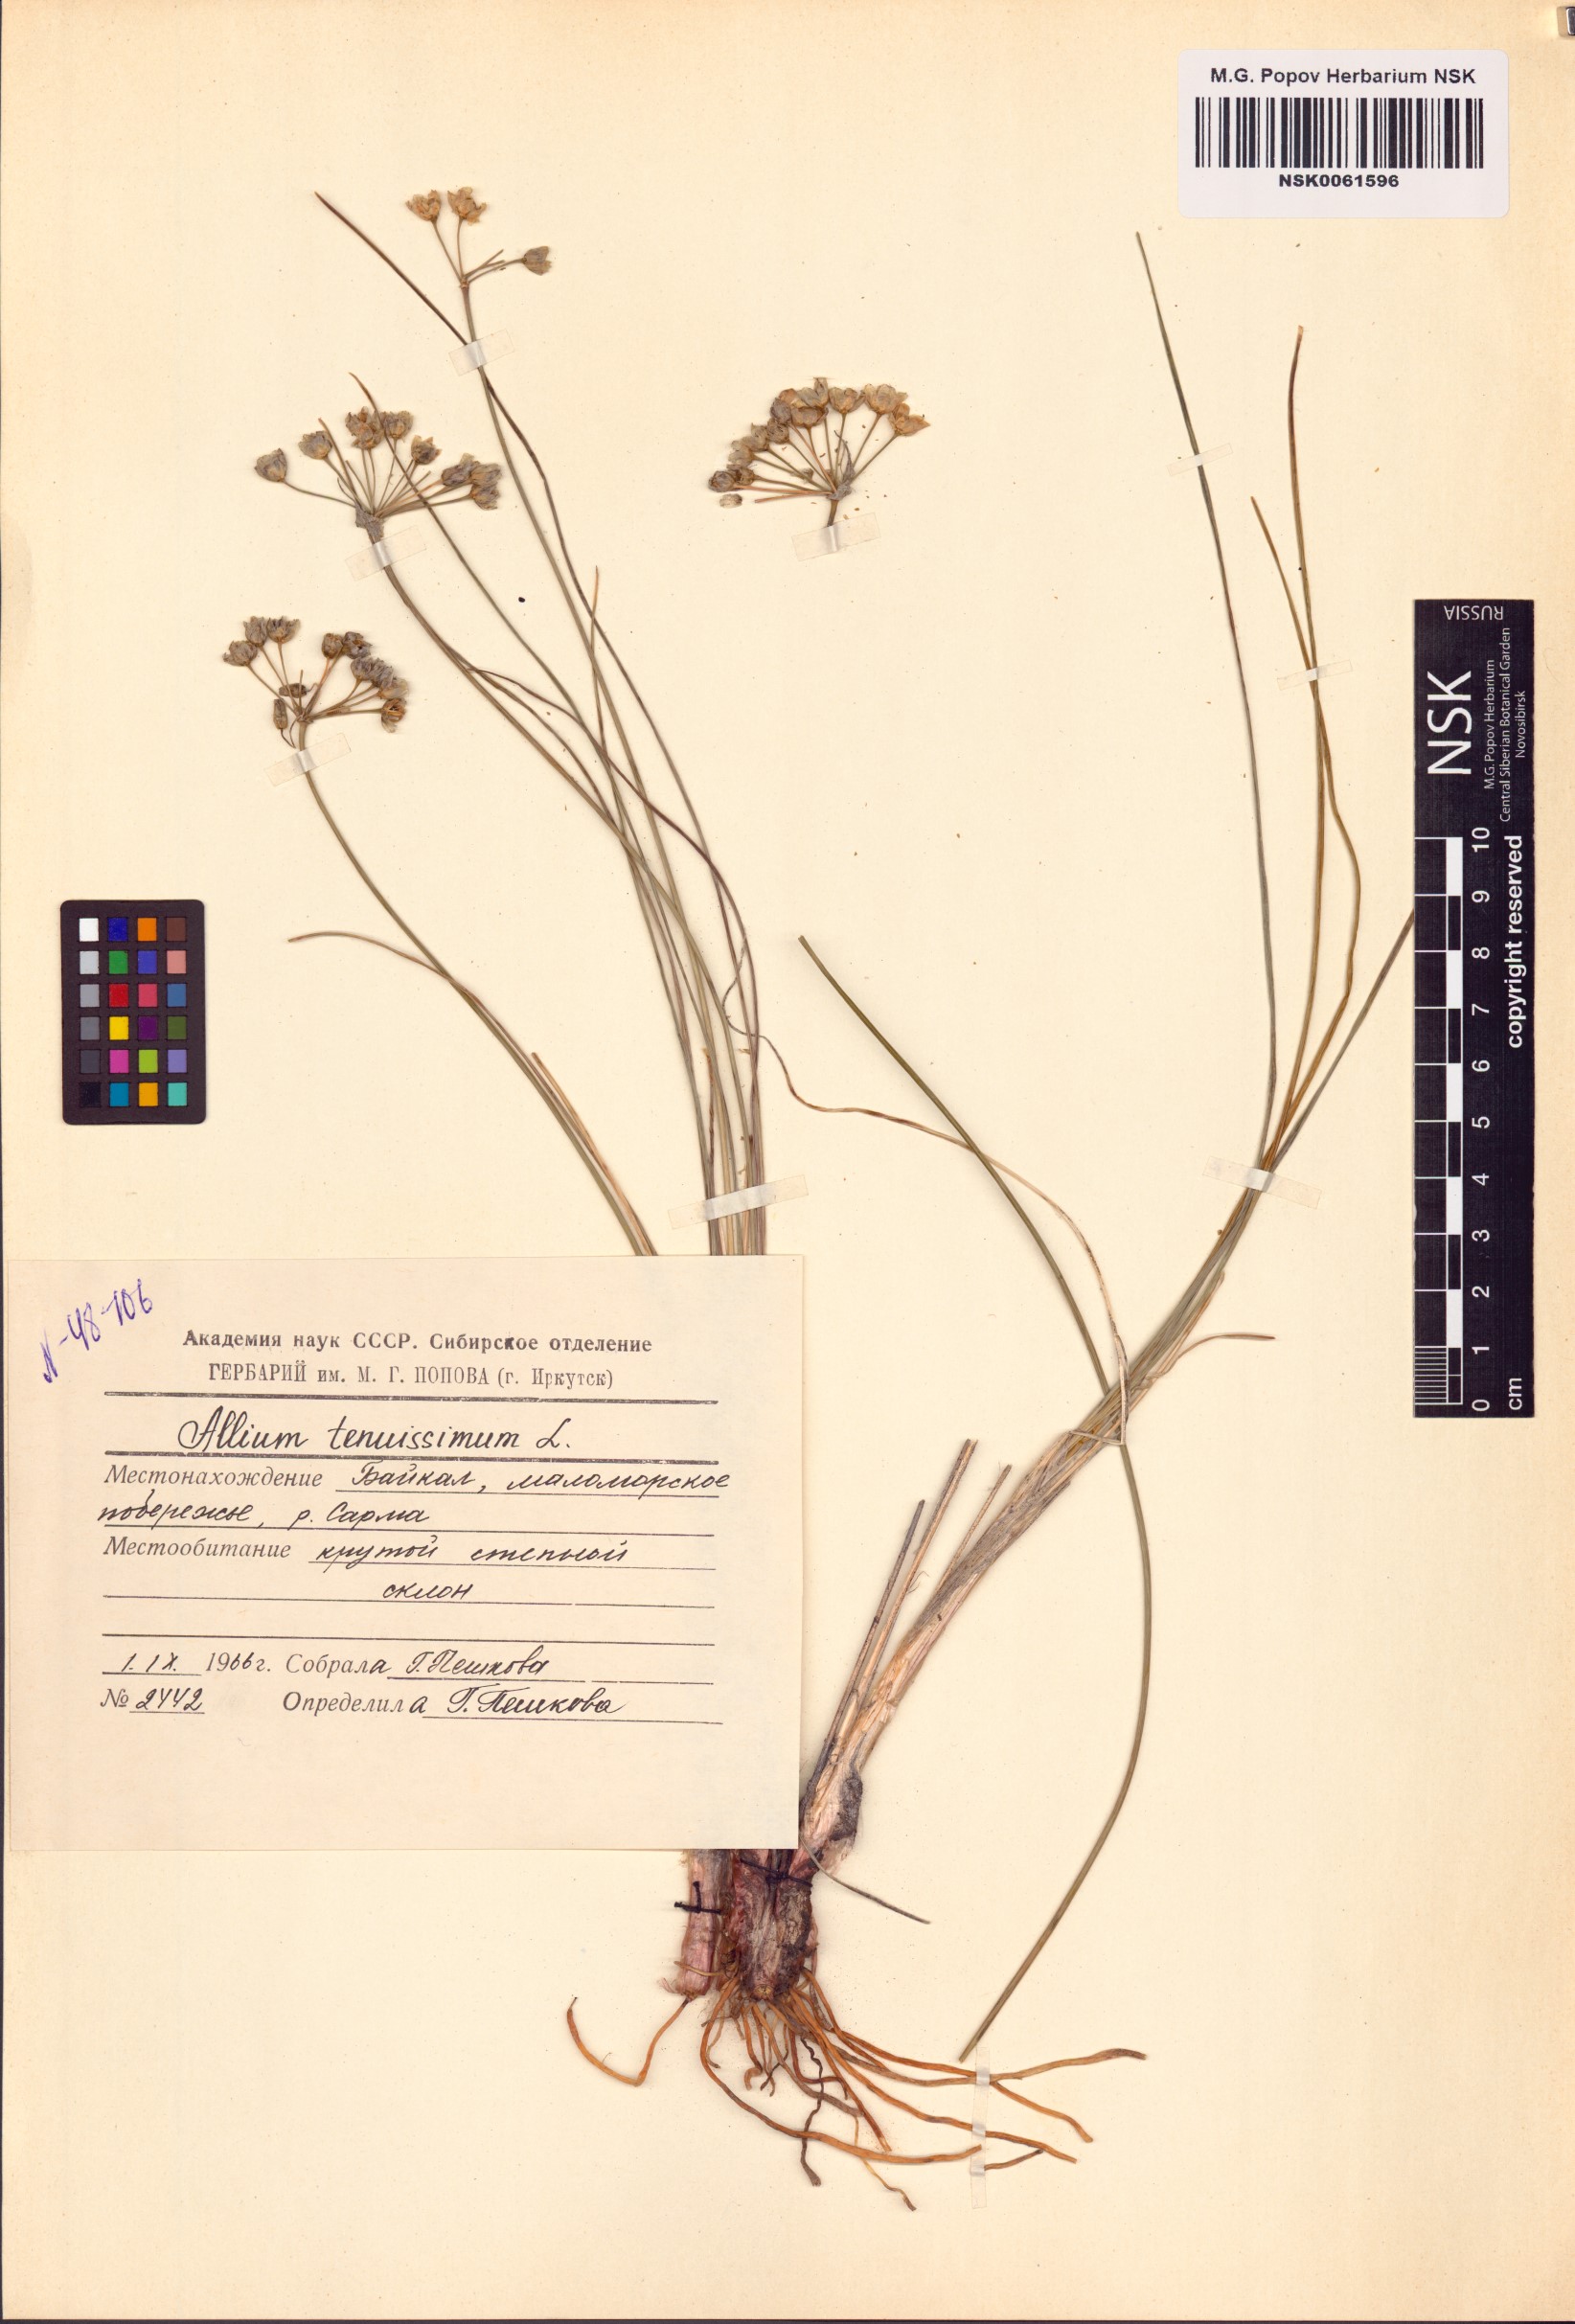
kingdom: Plantae
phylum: Tracheophyta
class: Liliopsida
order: Asparagales
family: Amaryllidaceae
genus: Allium
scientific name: Allium tenuissimum
